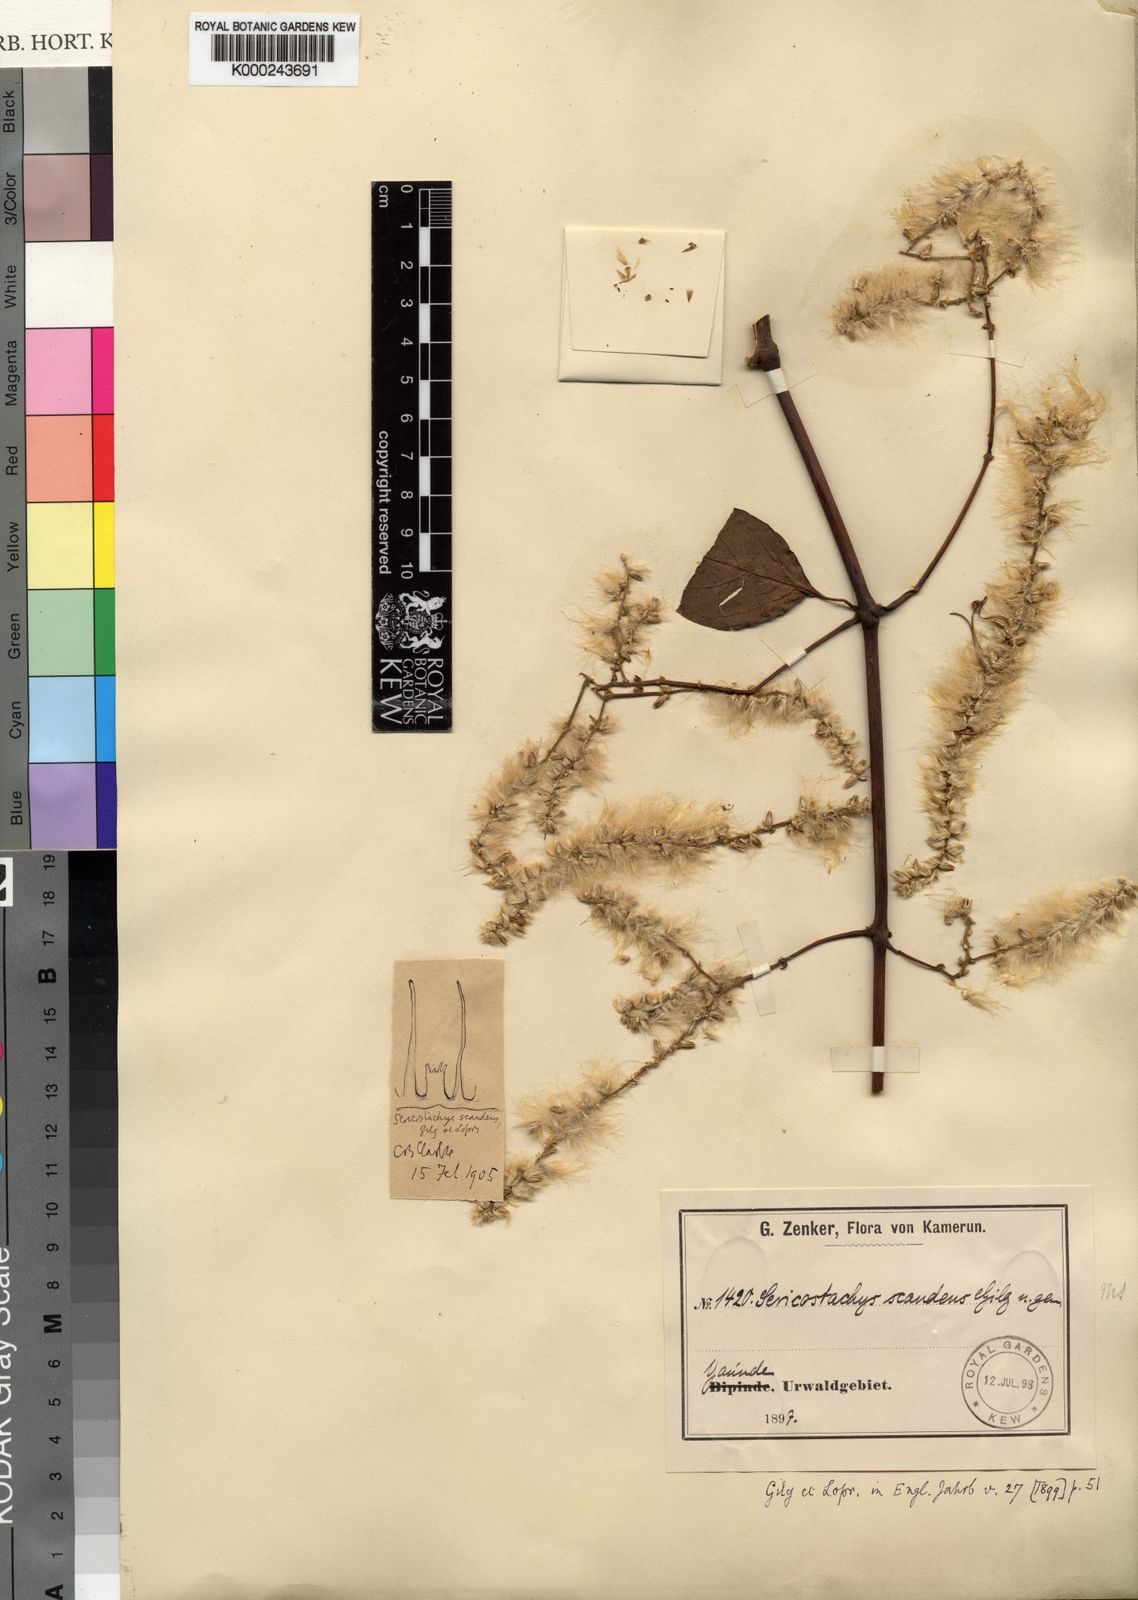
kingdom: Plantae
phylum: Tracheophyta
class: Magnoliopsida
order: Caryophyllales
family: Amaranthaceae
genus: Sericostachys
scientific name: Sericostachys scandens
